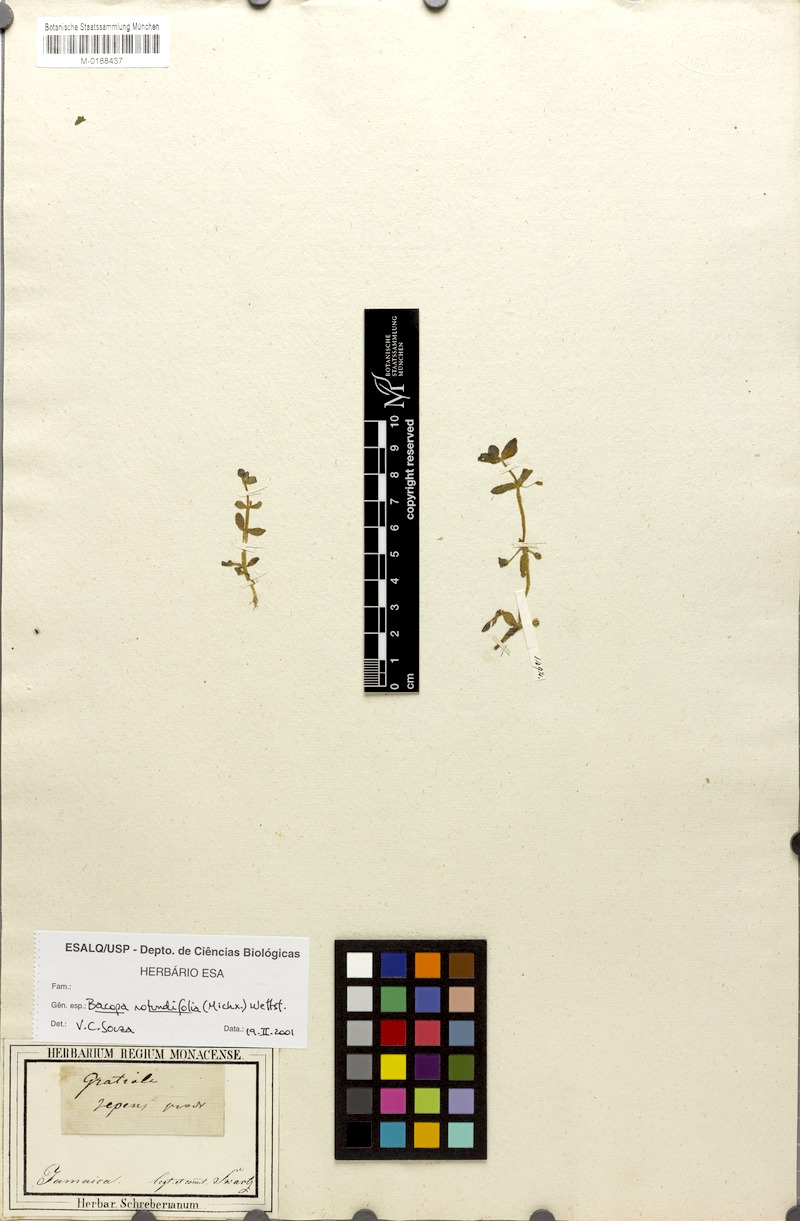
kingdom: Plantae
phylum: Tracheophyta
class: Magnoliopsida
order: Lamiales
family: Plantaginaceae
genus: Bacopa
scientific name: Bacopa rotundifolia
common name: Disc water hyssop
